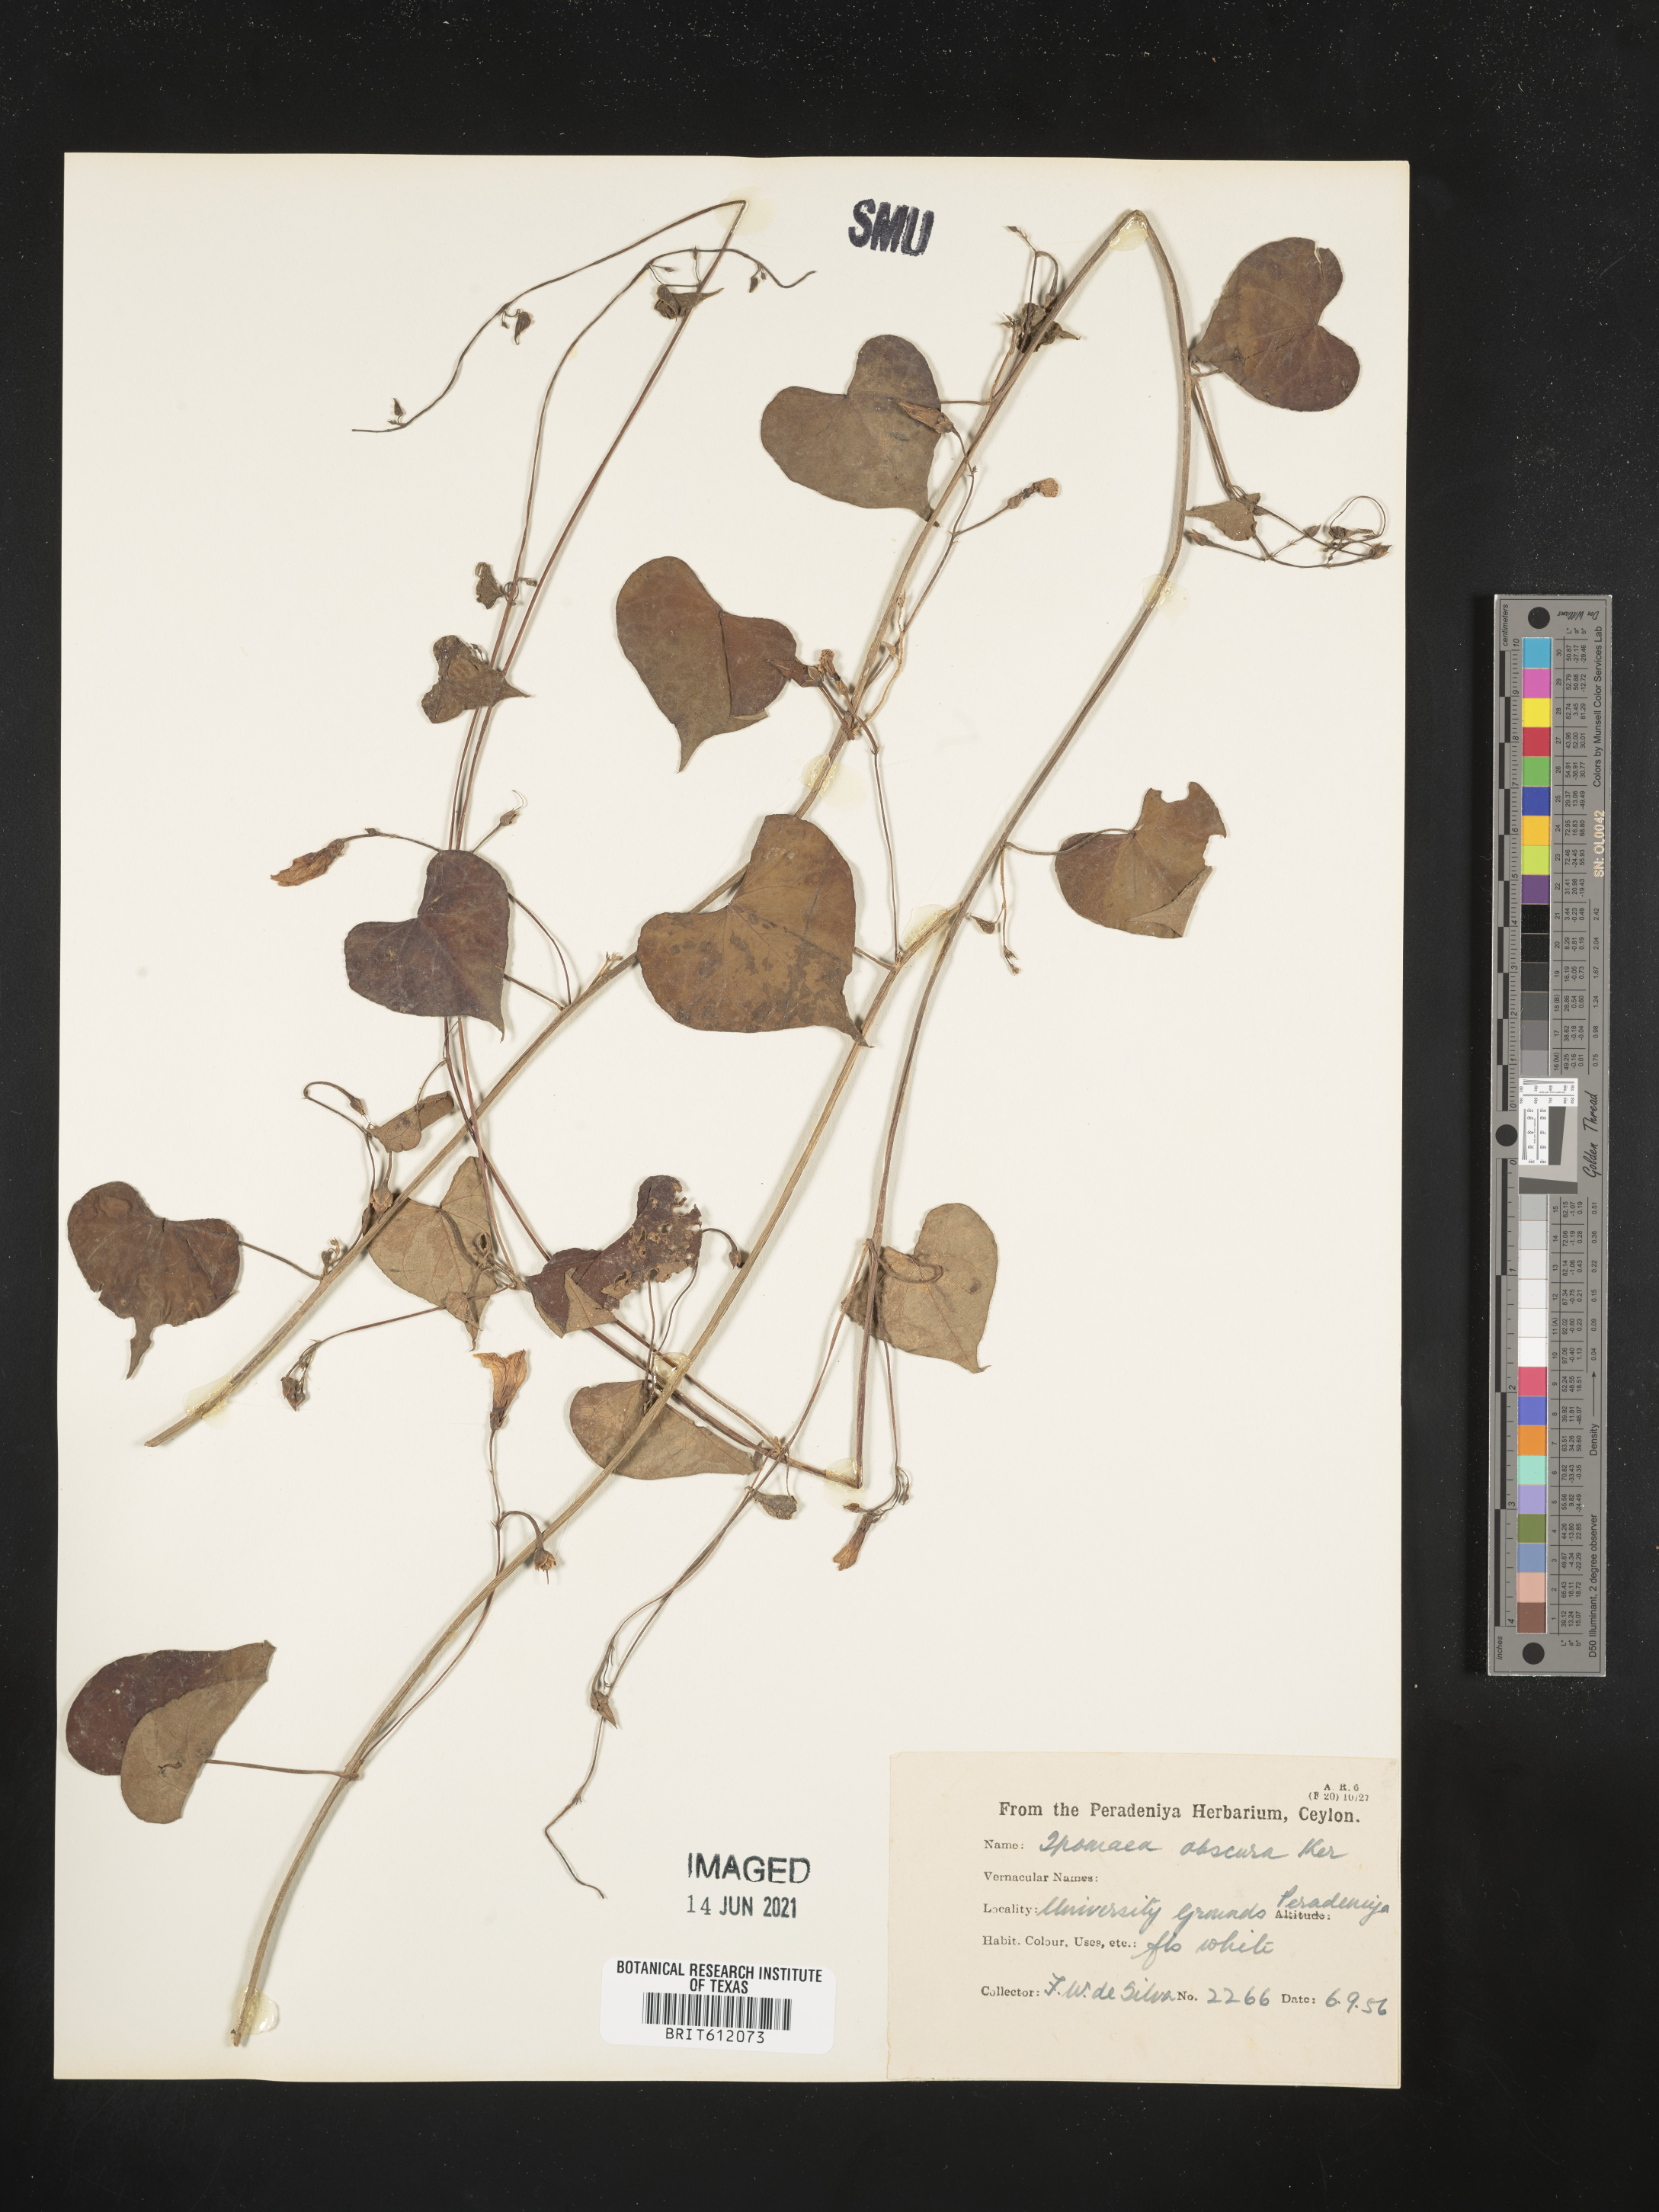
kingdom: Plantae
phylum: Tracheophyta
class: Magnoliopsida
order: Solanales
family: Convolvulaceae
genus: Ipomoea
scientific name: Ipomoea obscura
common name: Obscure morning-glory
